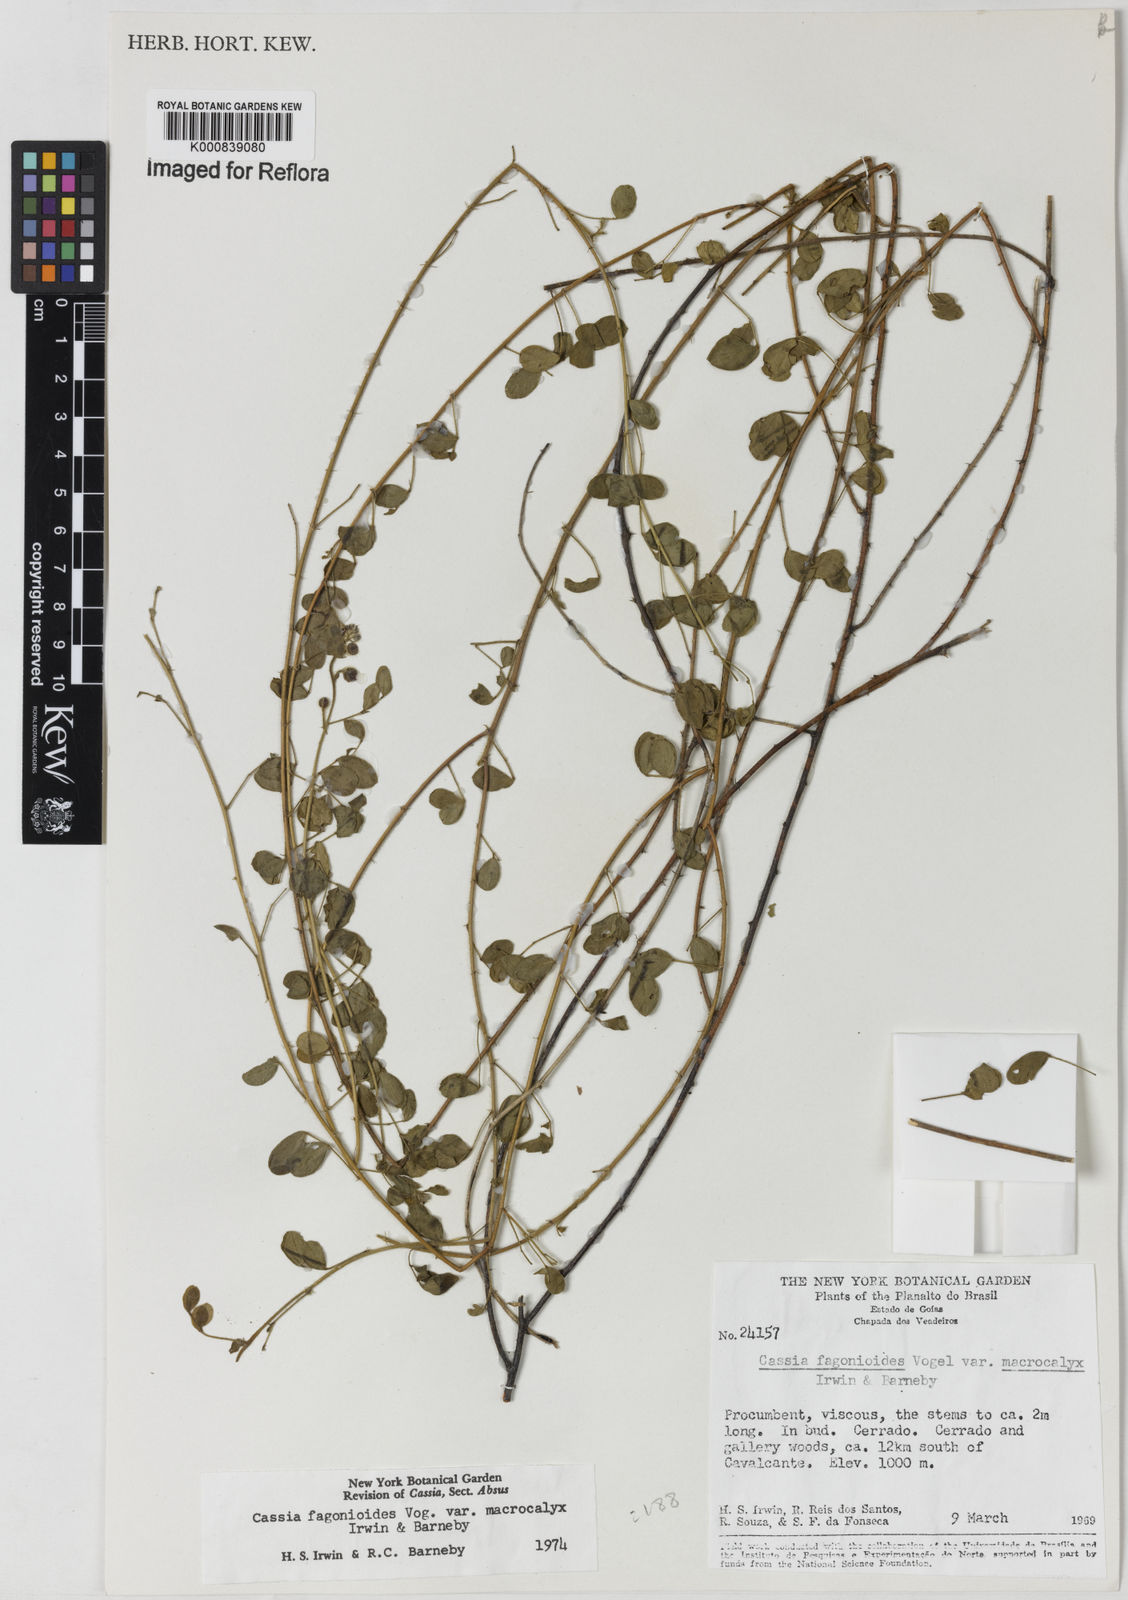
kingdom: Plantae
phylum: Tracheophyta
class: Magnoliopsida
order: Fabales
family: Fabaceae
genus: Chamaecrista
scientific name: Chamaecrista fagonioides
